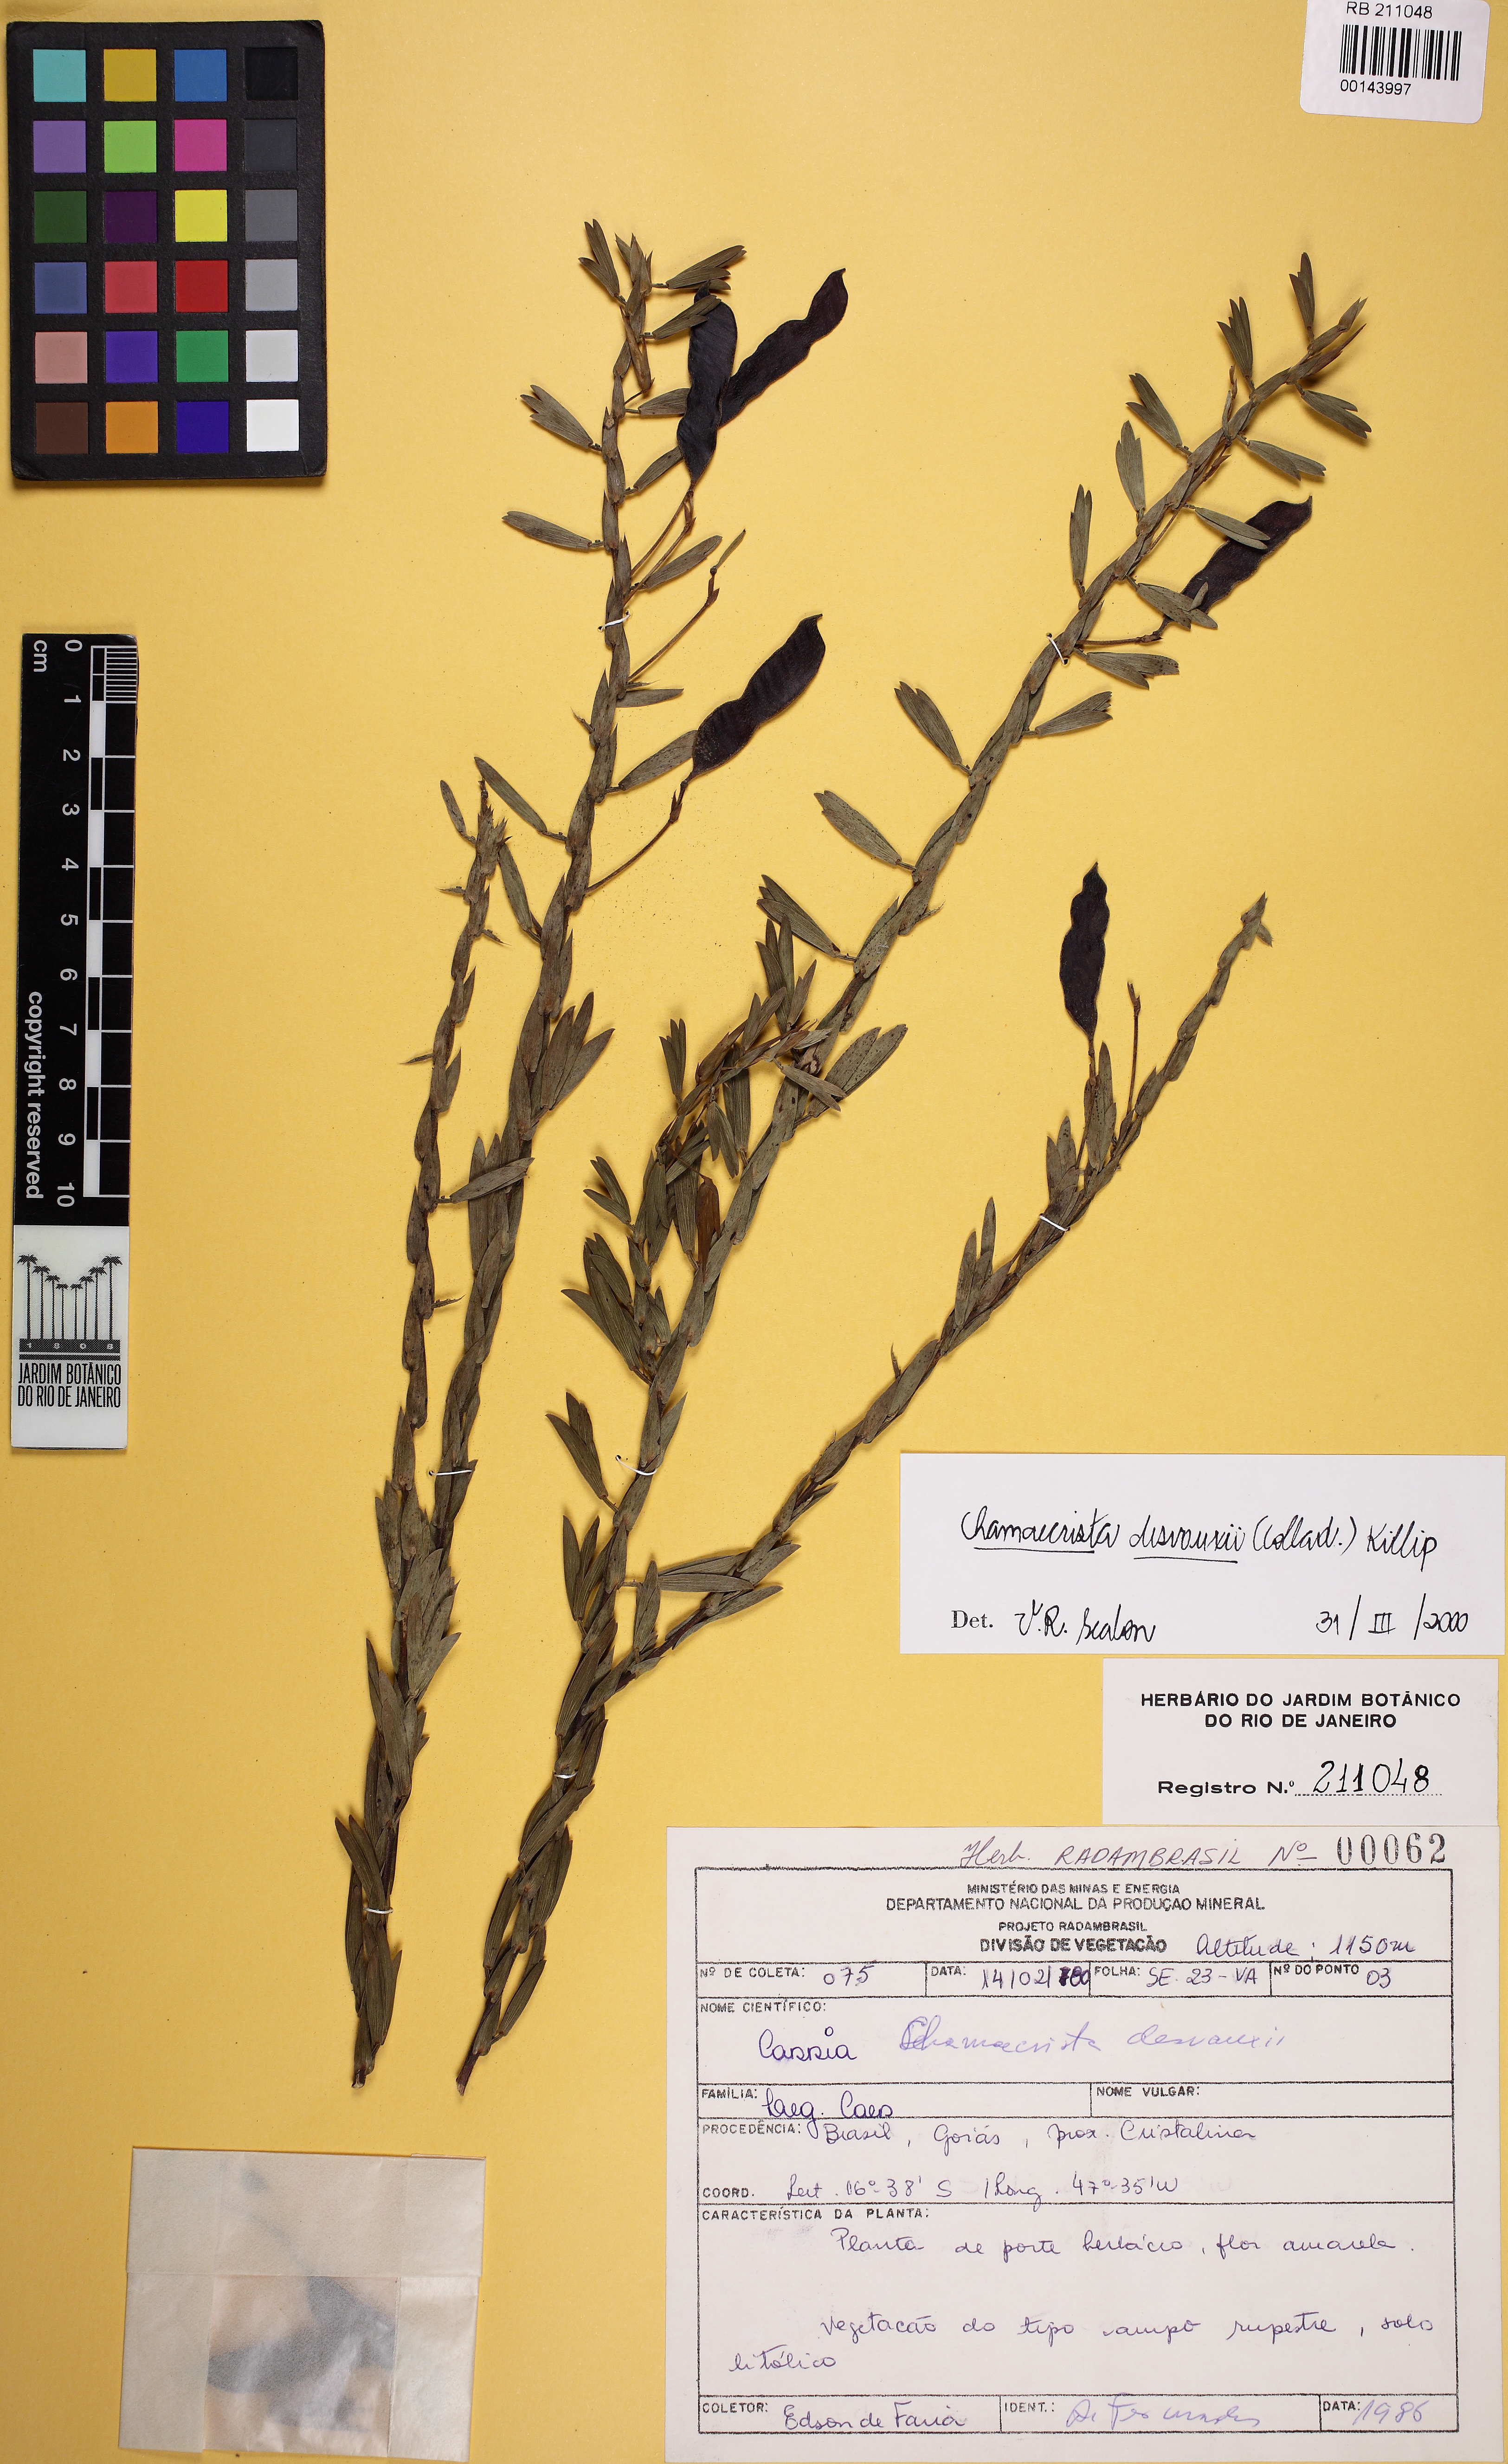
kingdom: Plantae
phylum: Tracheophyta
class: Magnoliopsida
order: Fabales
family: Fabaceae
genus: Chamaecrista
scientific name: Chamaecrista desvauxii
